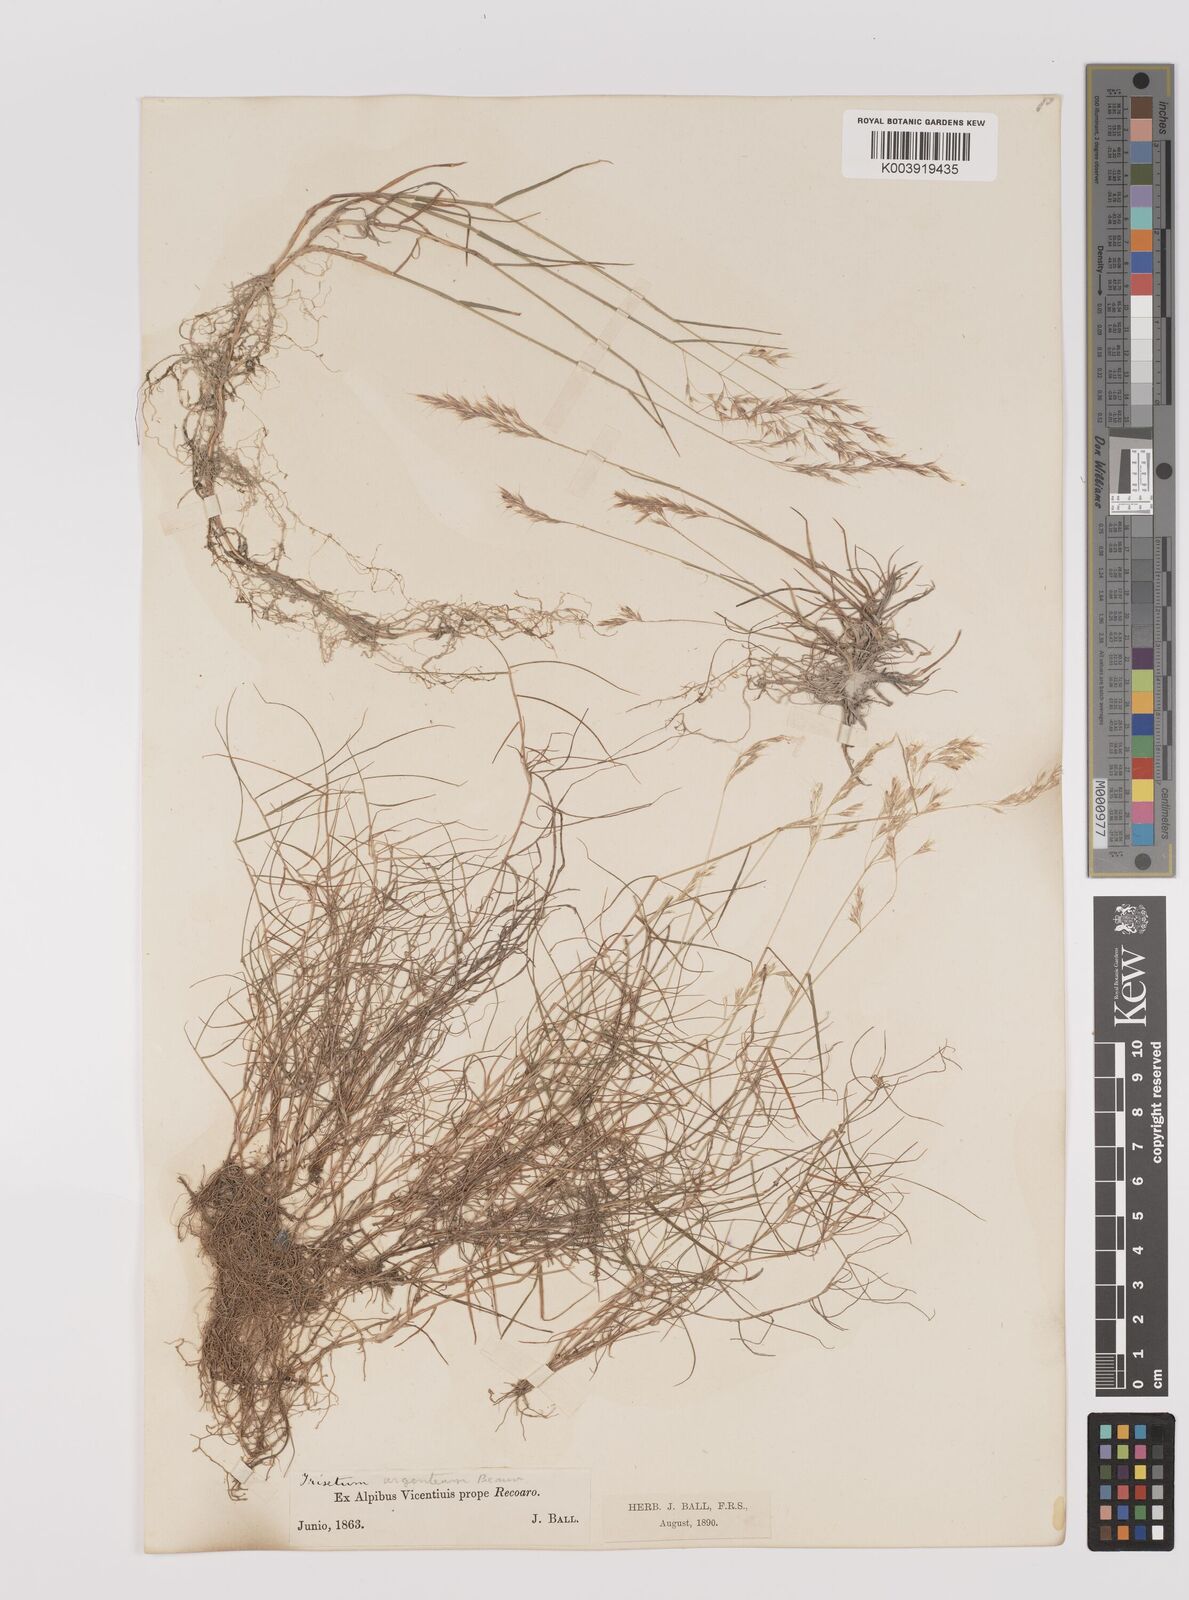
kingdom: Plantae
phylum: Tracheophyta
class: Liliopsida
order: Poales
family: Poaceae
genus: Trisetum
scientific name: Trisetum argenteum
